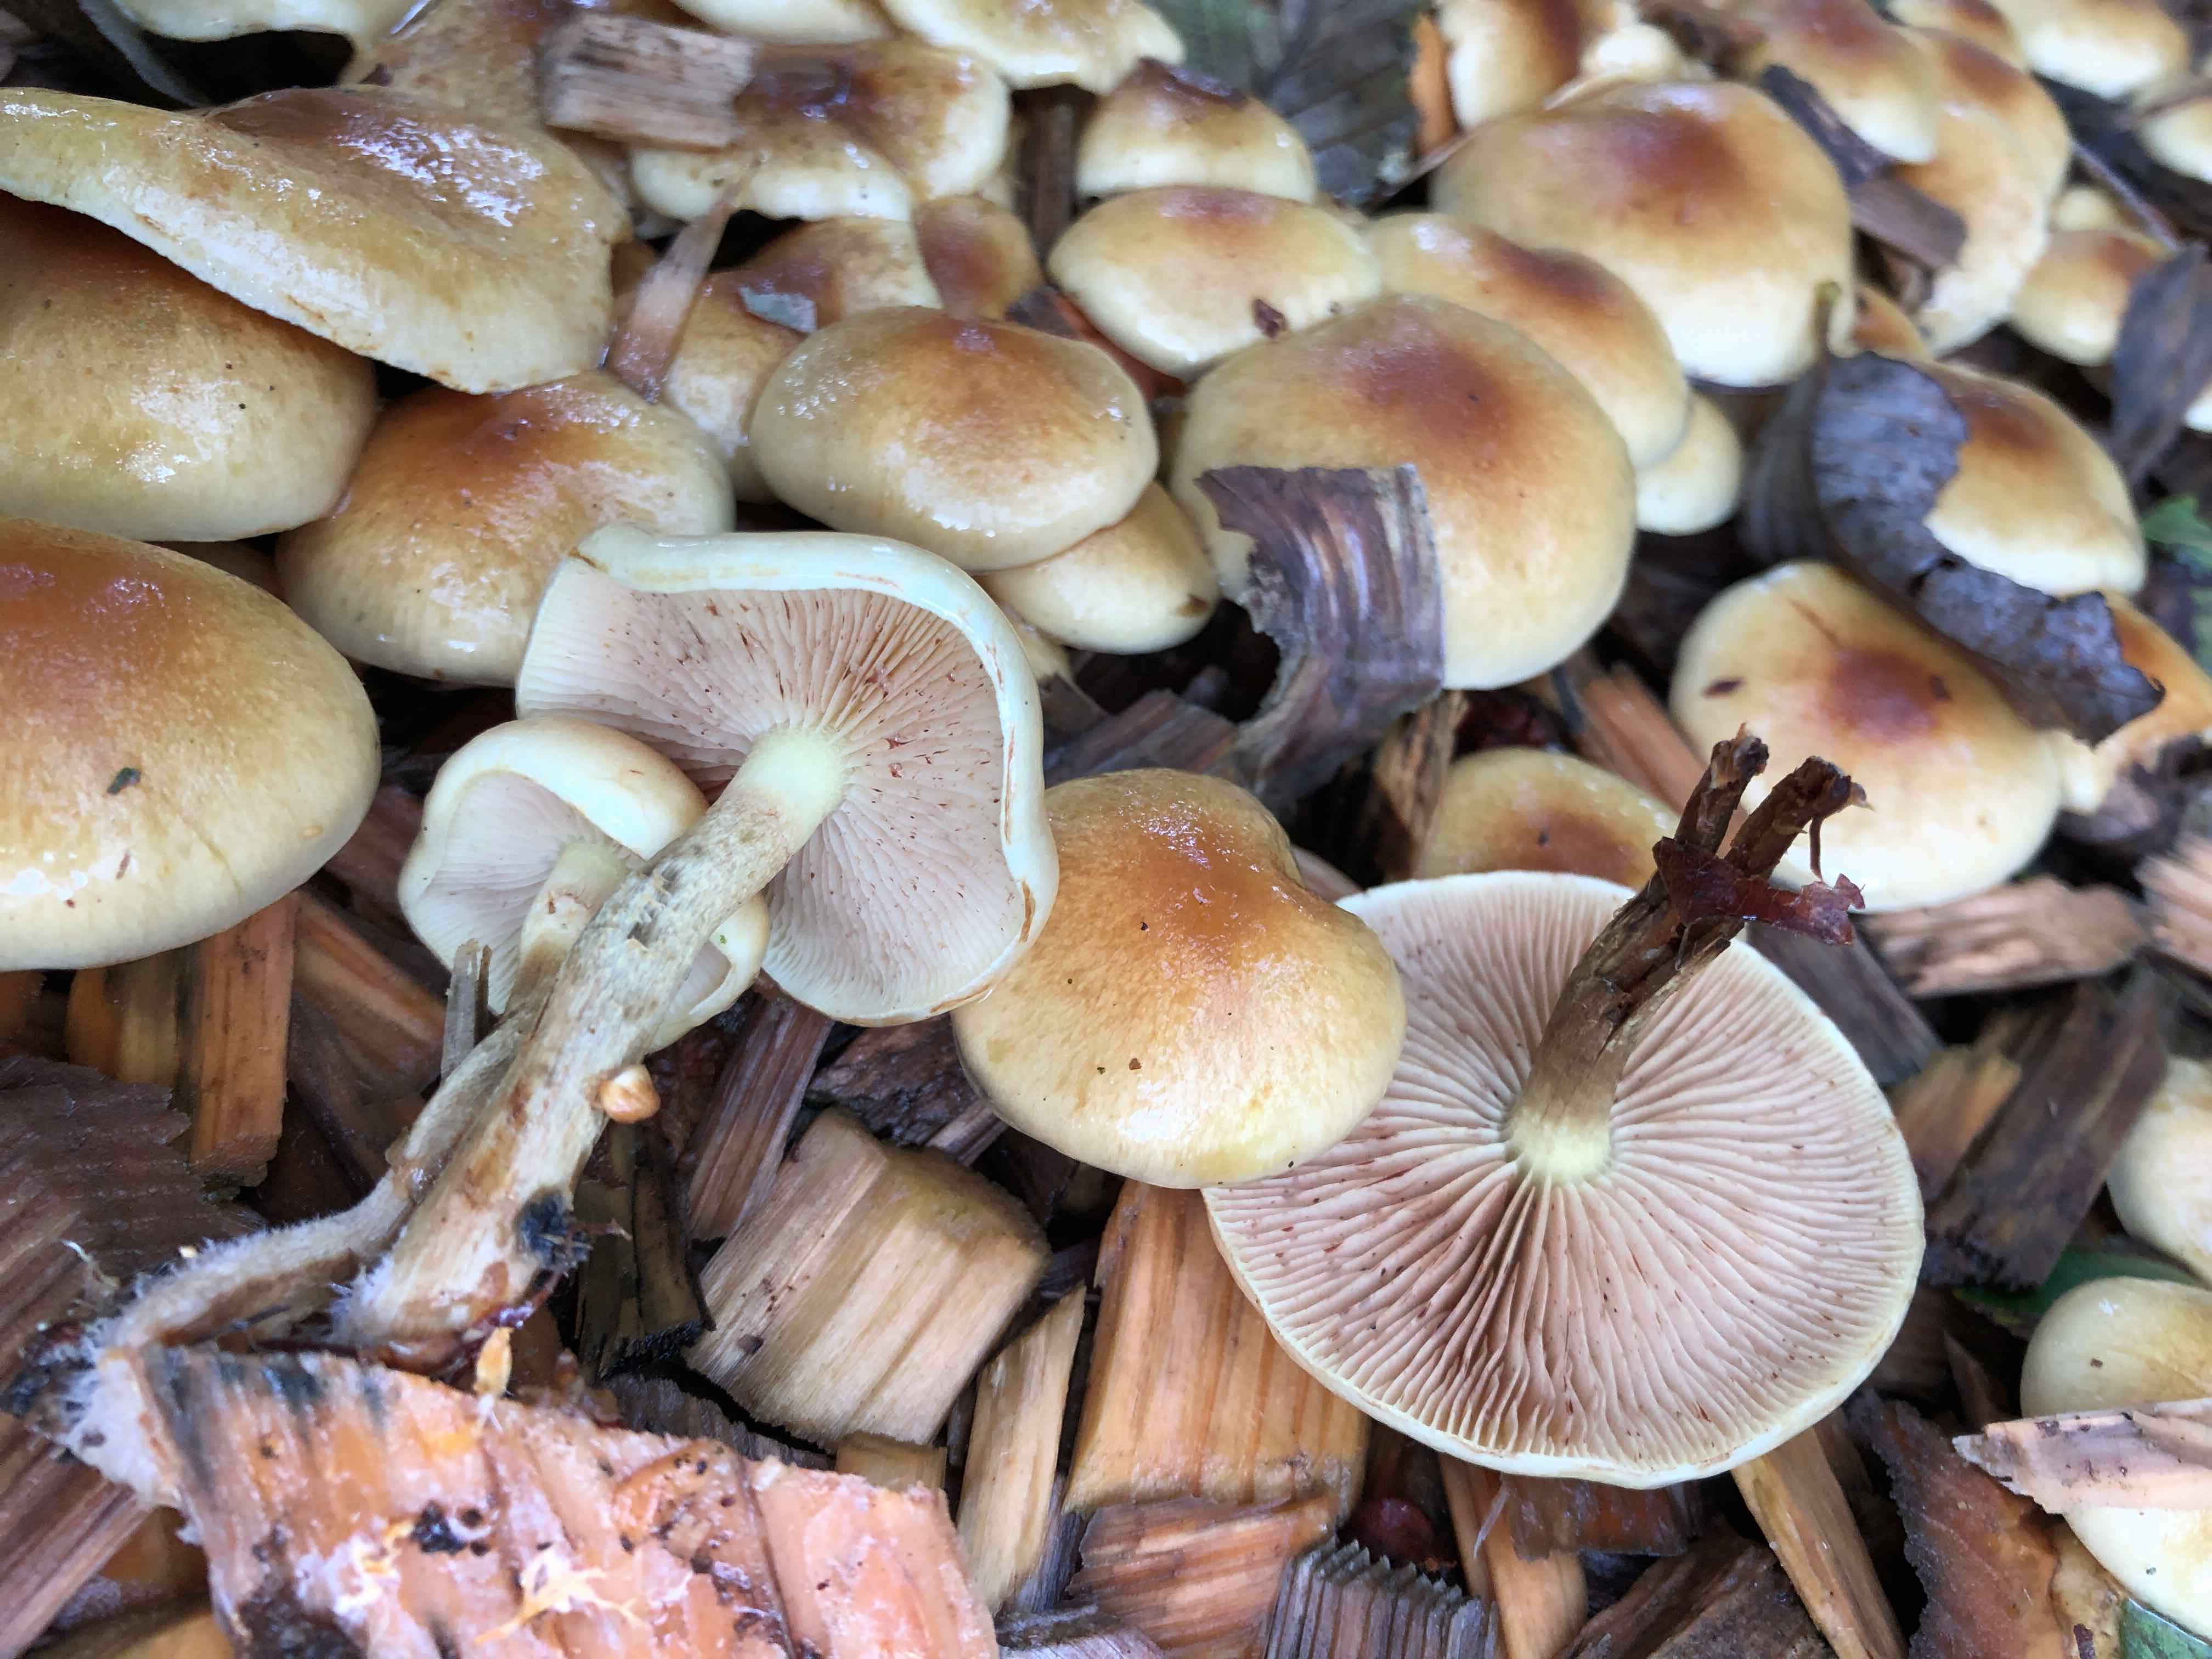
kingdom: Fungi
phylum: Basidiomycota
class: Agaricomycetes
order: Agaricales
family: Strophariaceae
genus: Pholiota
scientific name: Pholiota
